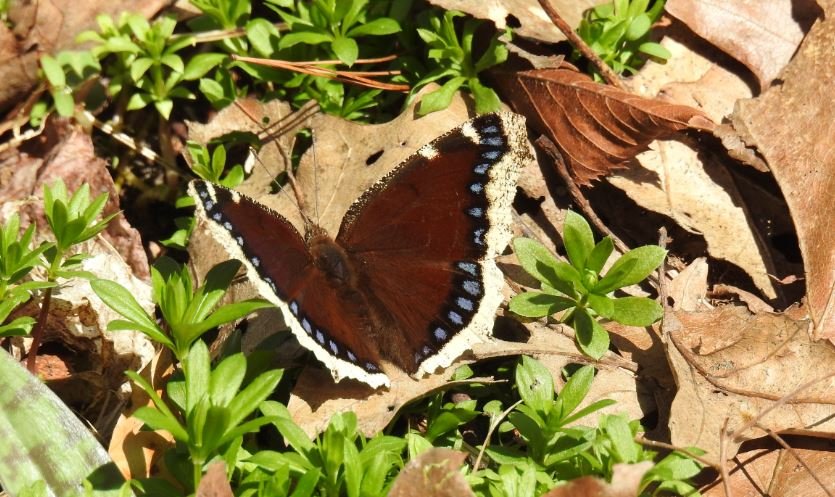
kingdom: Animalia
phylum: Arthropoda
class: Insecta
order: Lepidoptera
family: Nymphalidae
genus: Nymphalis
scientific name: Nymphalis antiopa
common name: Mourning Cloak
